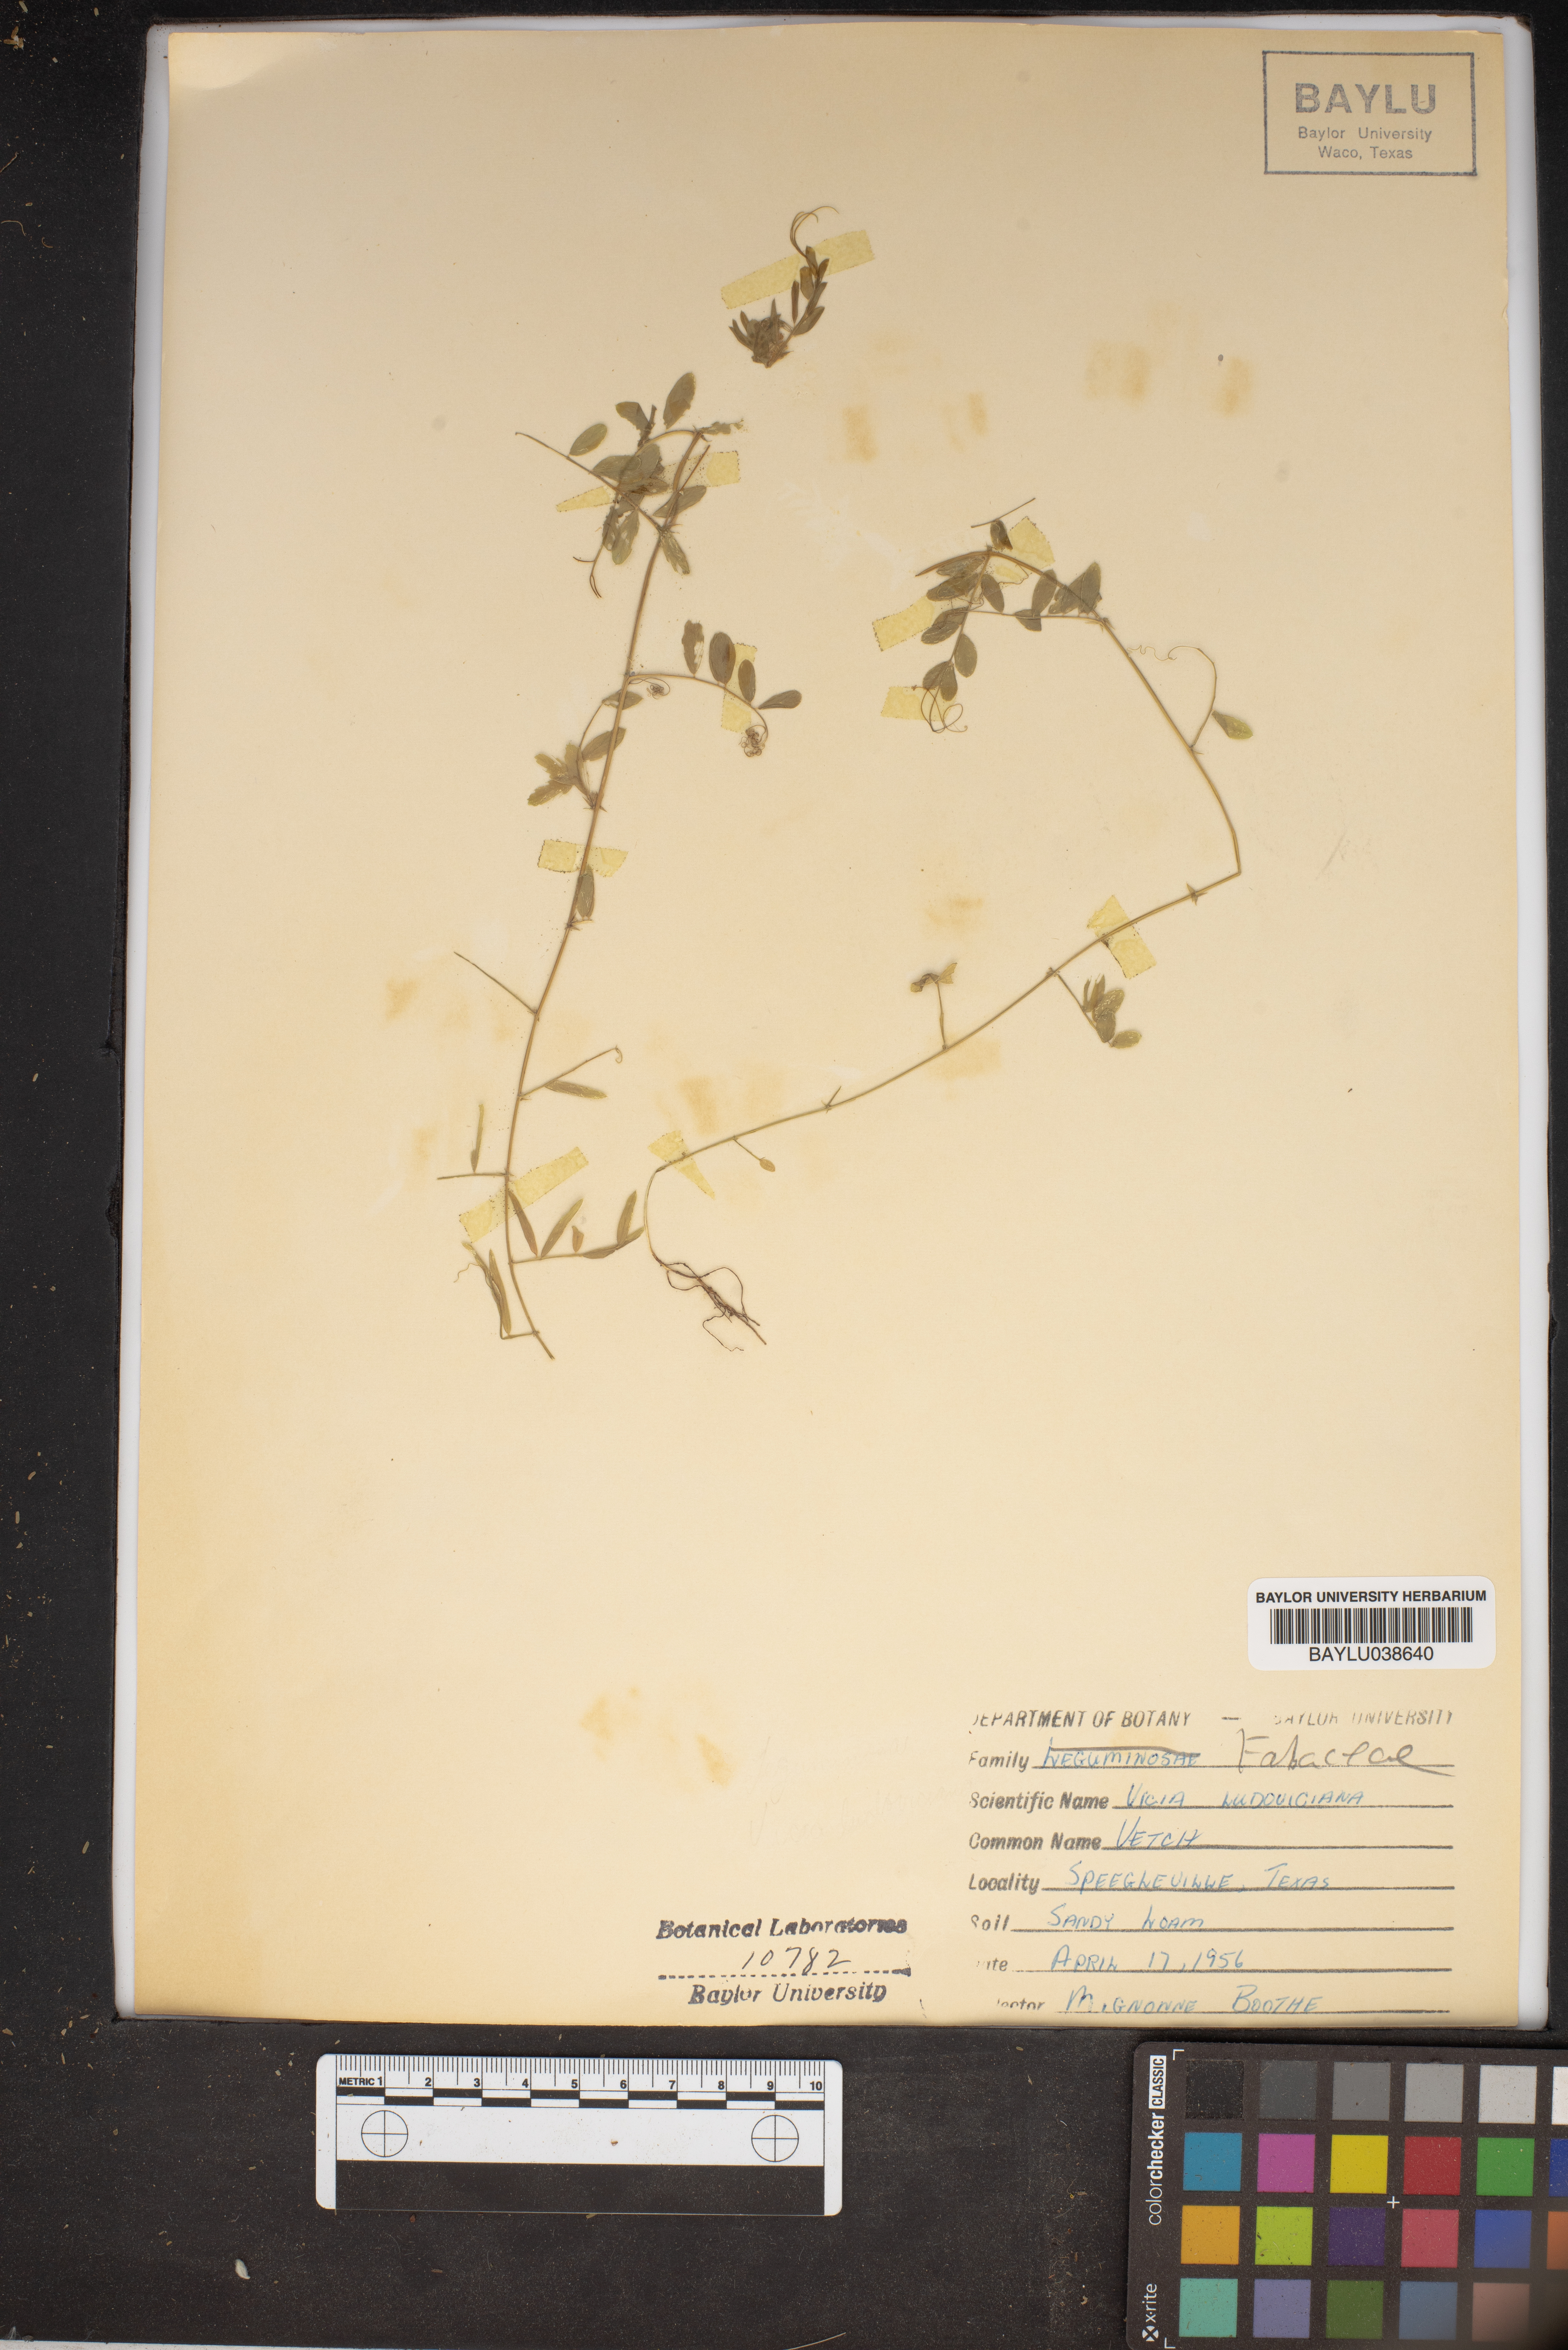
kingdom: Plantae
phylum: Tracheophyta
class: Magnoliopsida
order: Fabales
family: Fabaceae
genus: Vicia
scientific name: Vicia ludoviciana
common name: Louisiana vetch
